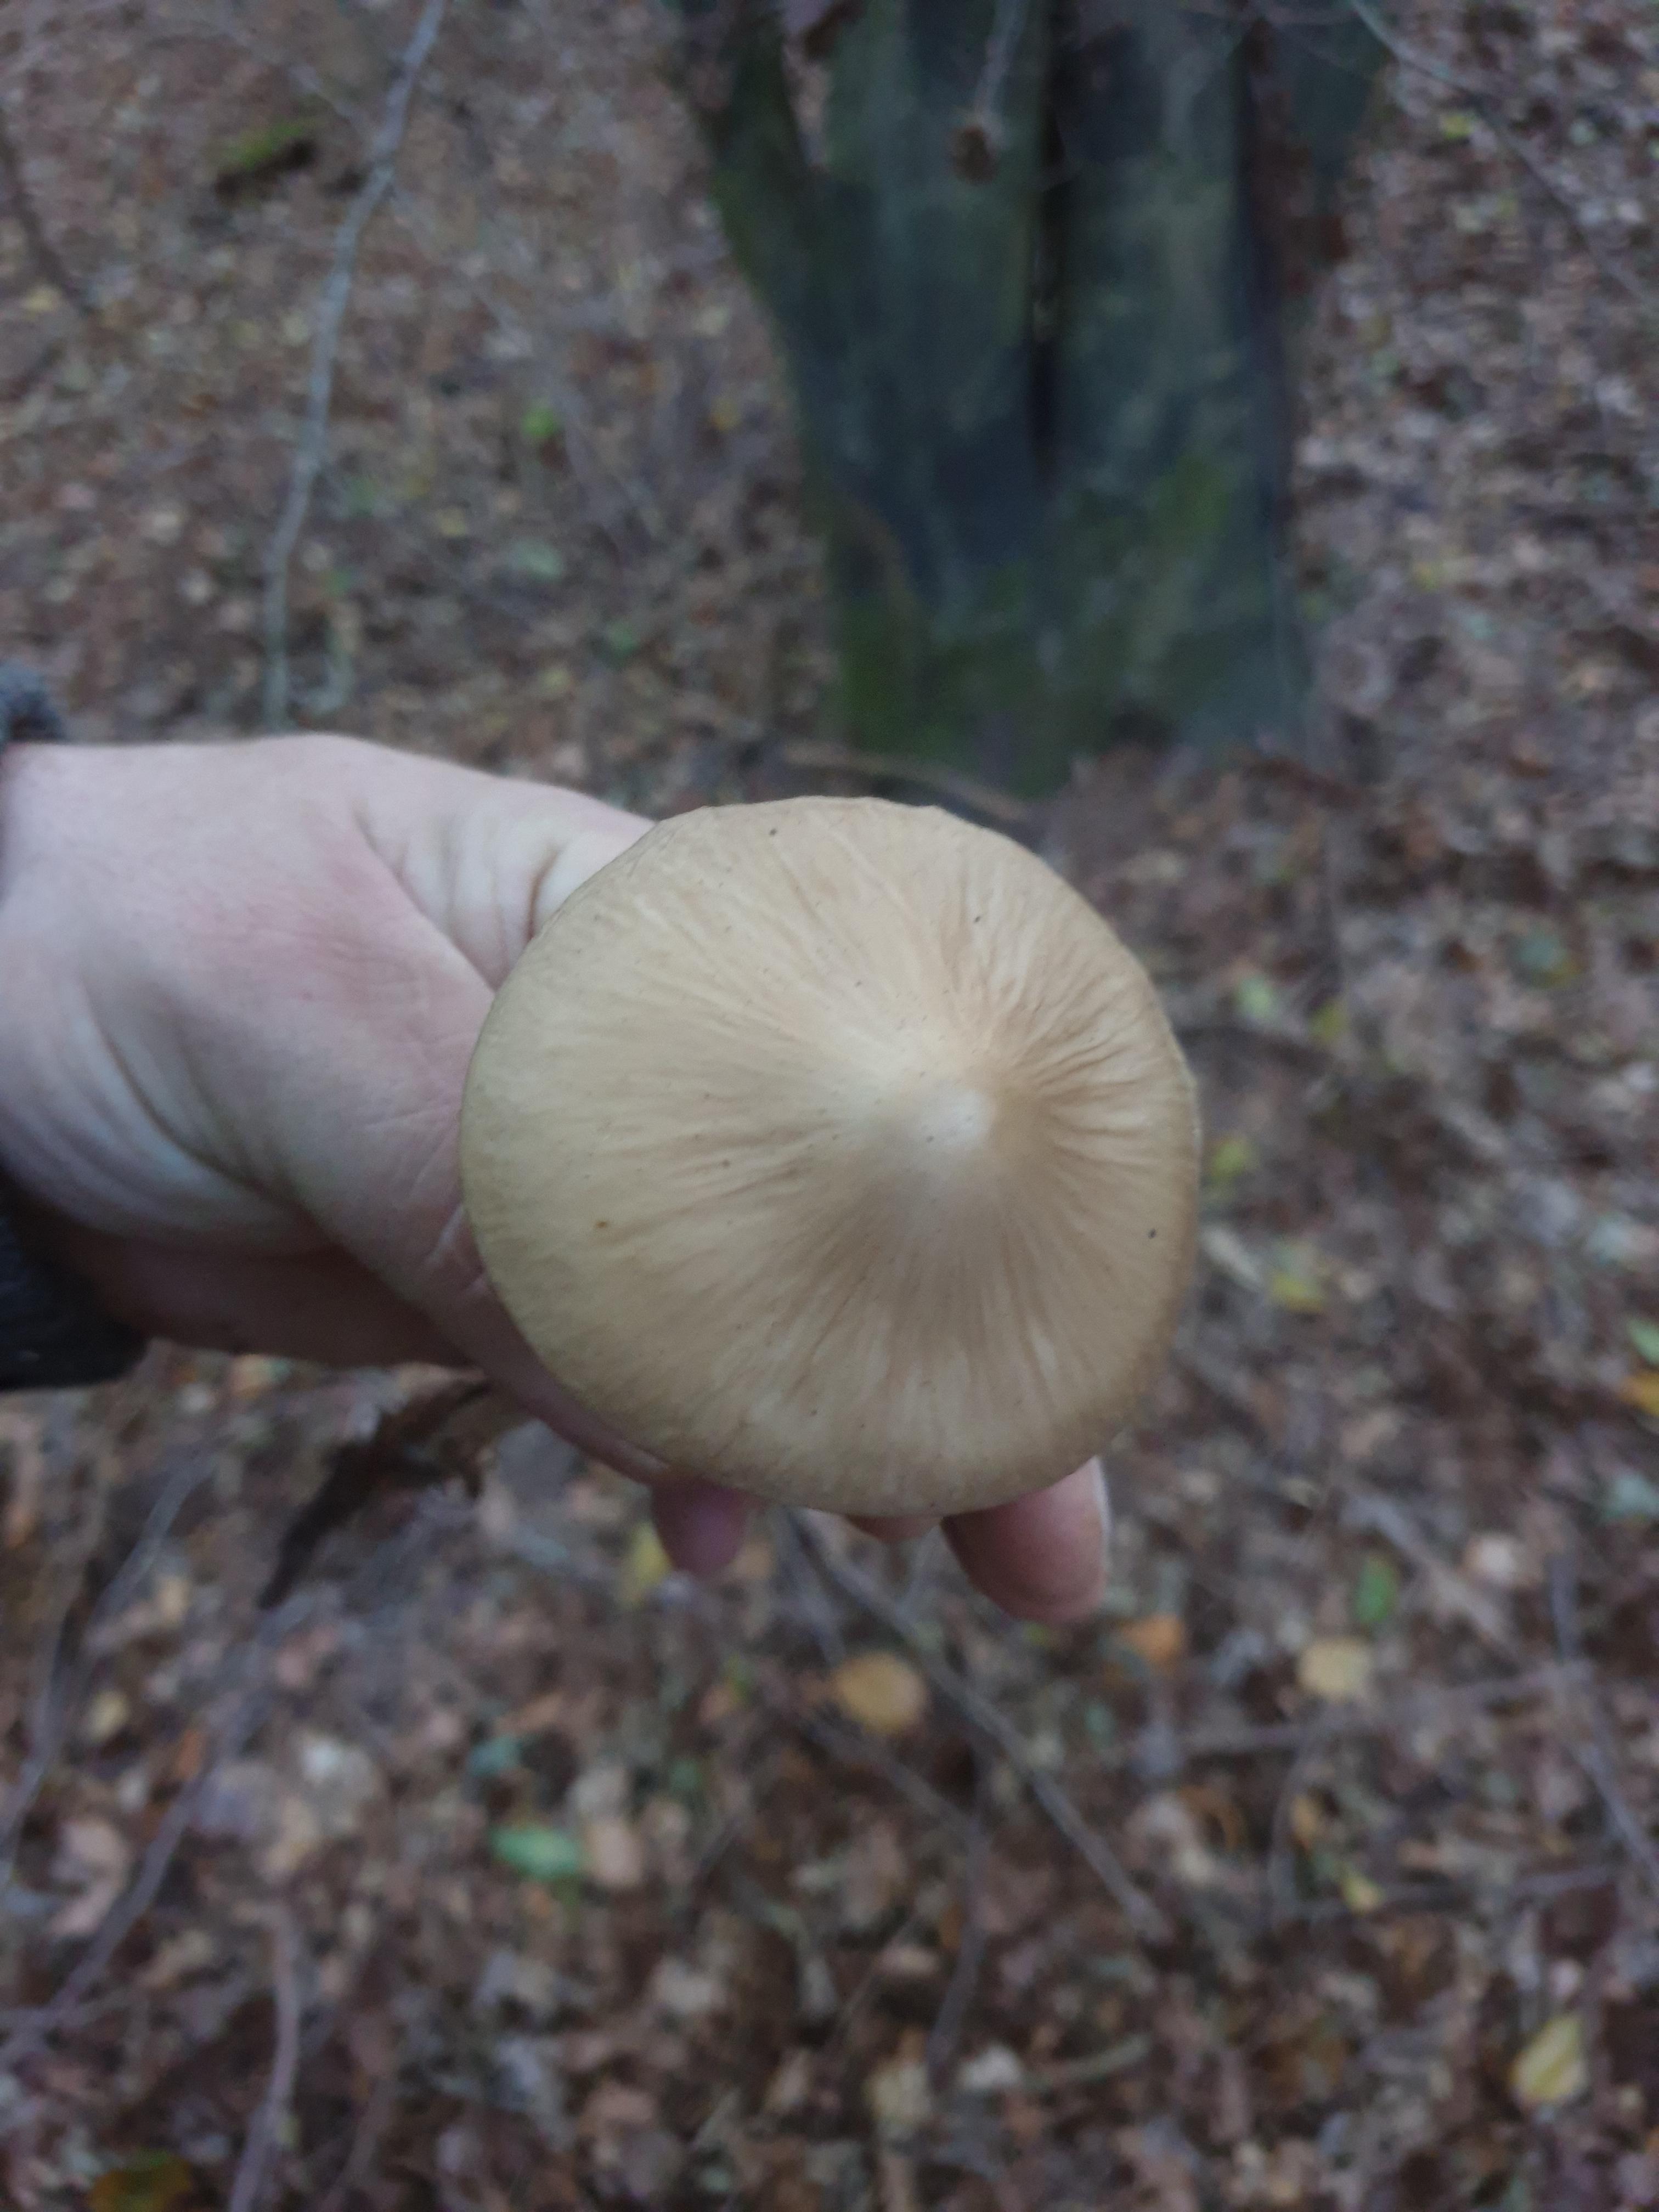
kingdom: Fungi
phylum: Basidiomycota
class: Agaricomycetes
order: Agaricales
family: Physalacriaceae
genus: Hymenopellis
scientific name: Hymenopellis radicata
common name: almindelig pælerodshat
